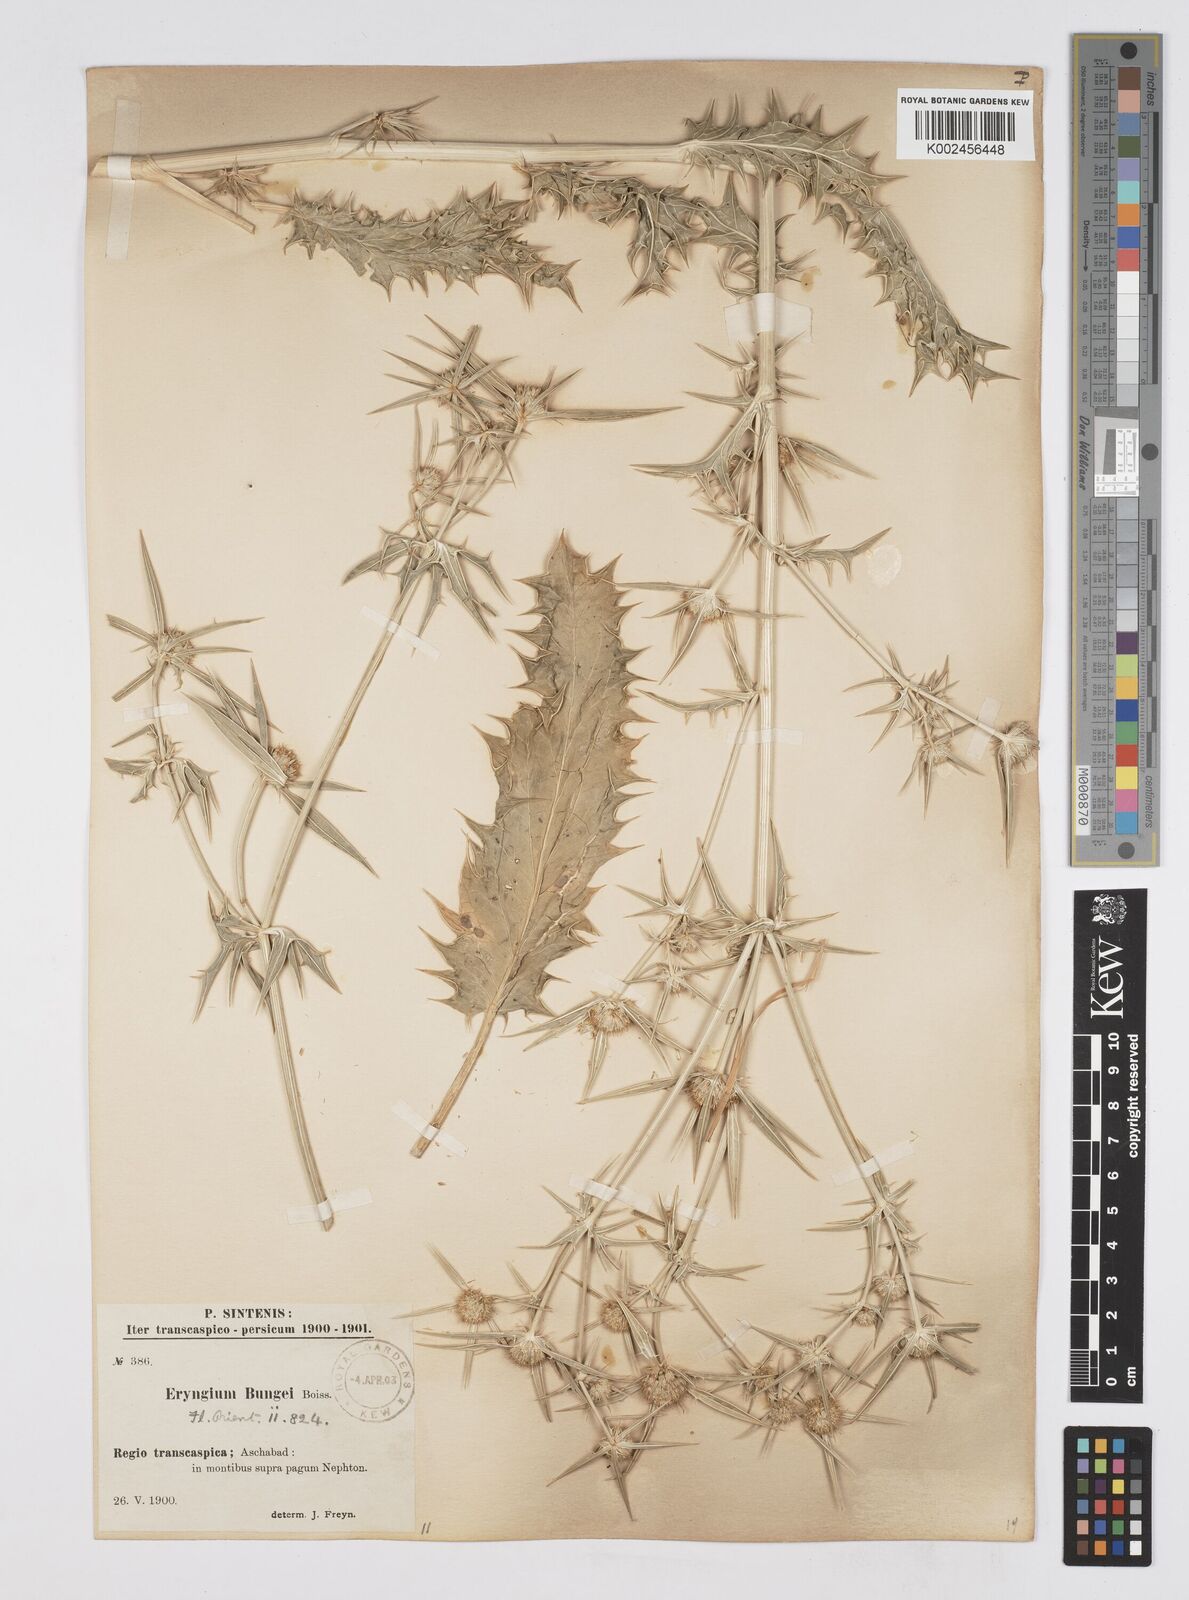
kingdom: Plantae
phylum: Tracheophyta
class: Magnoliopsida
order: Apiales
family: Apiaceae
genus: Eryngium
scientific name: Eryngium bungei
